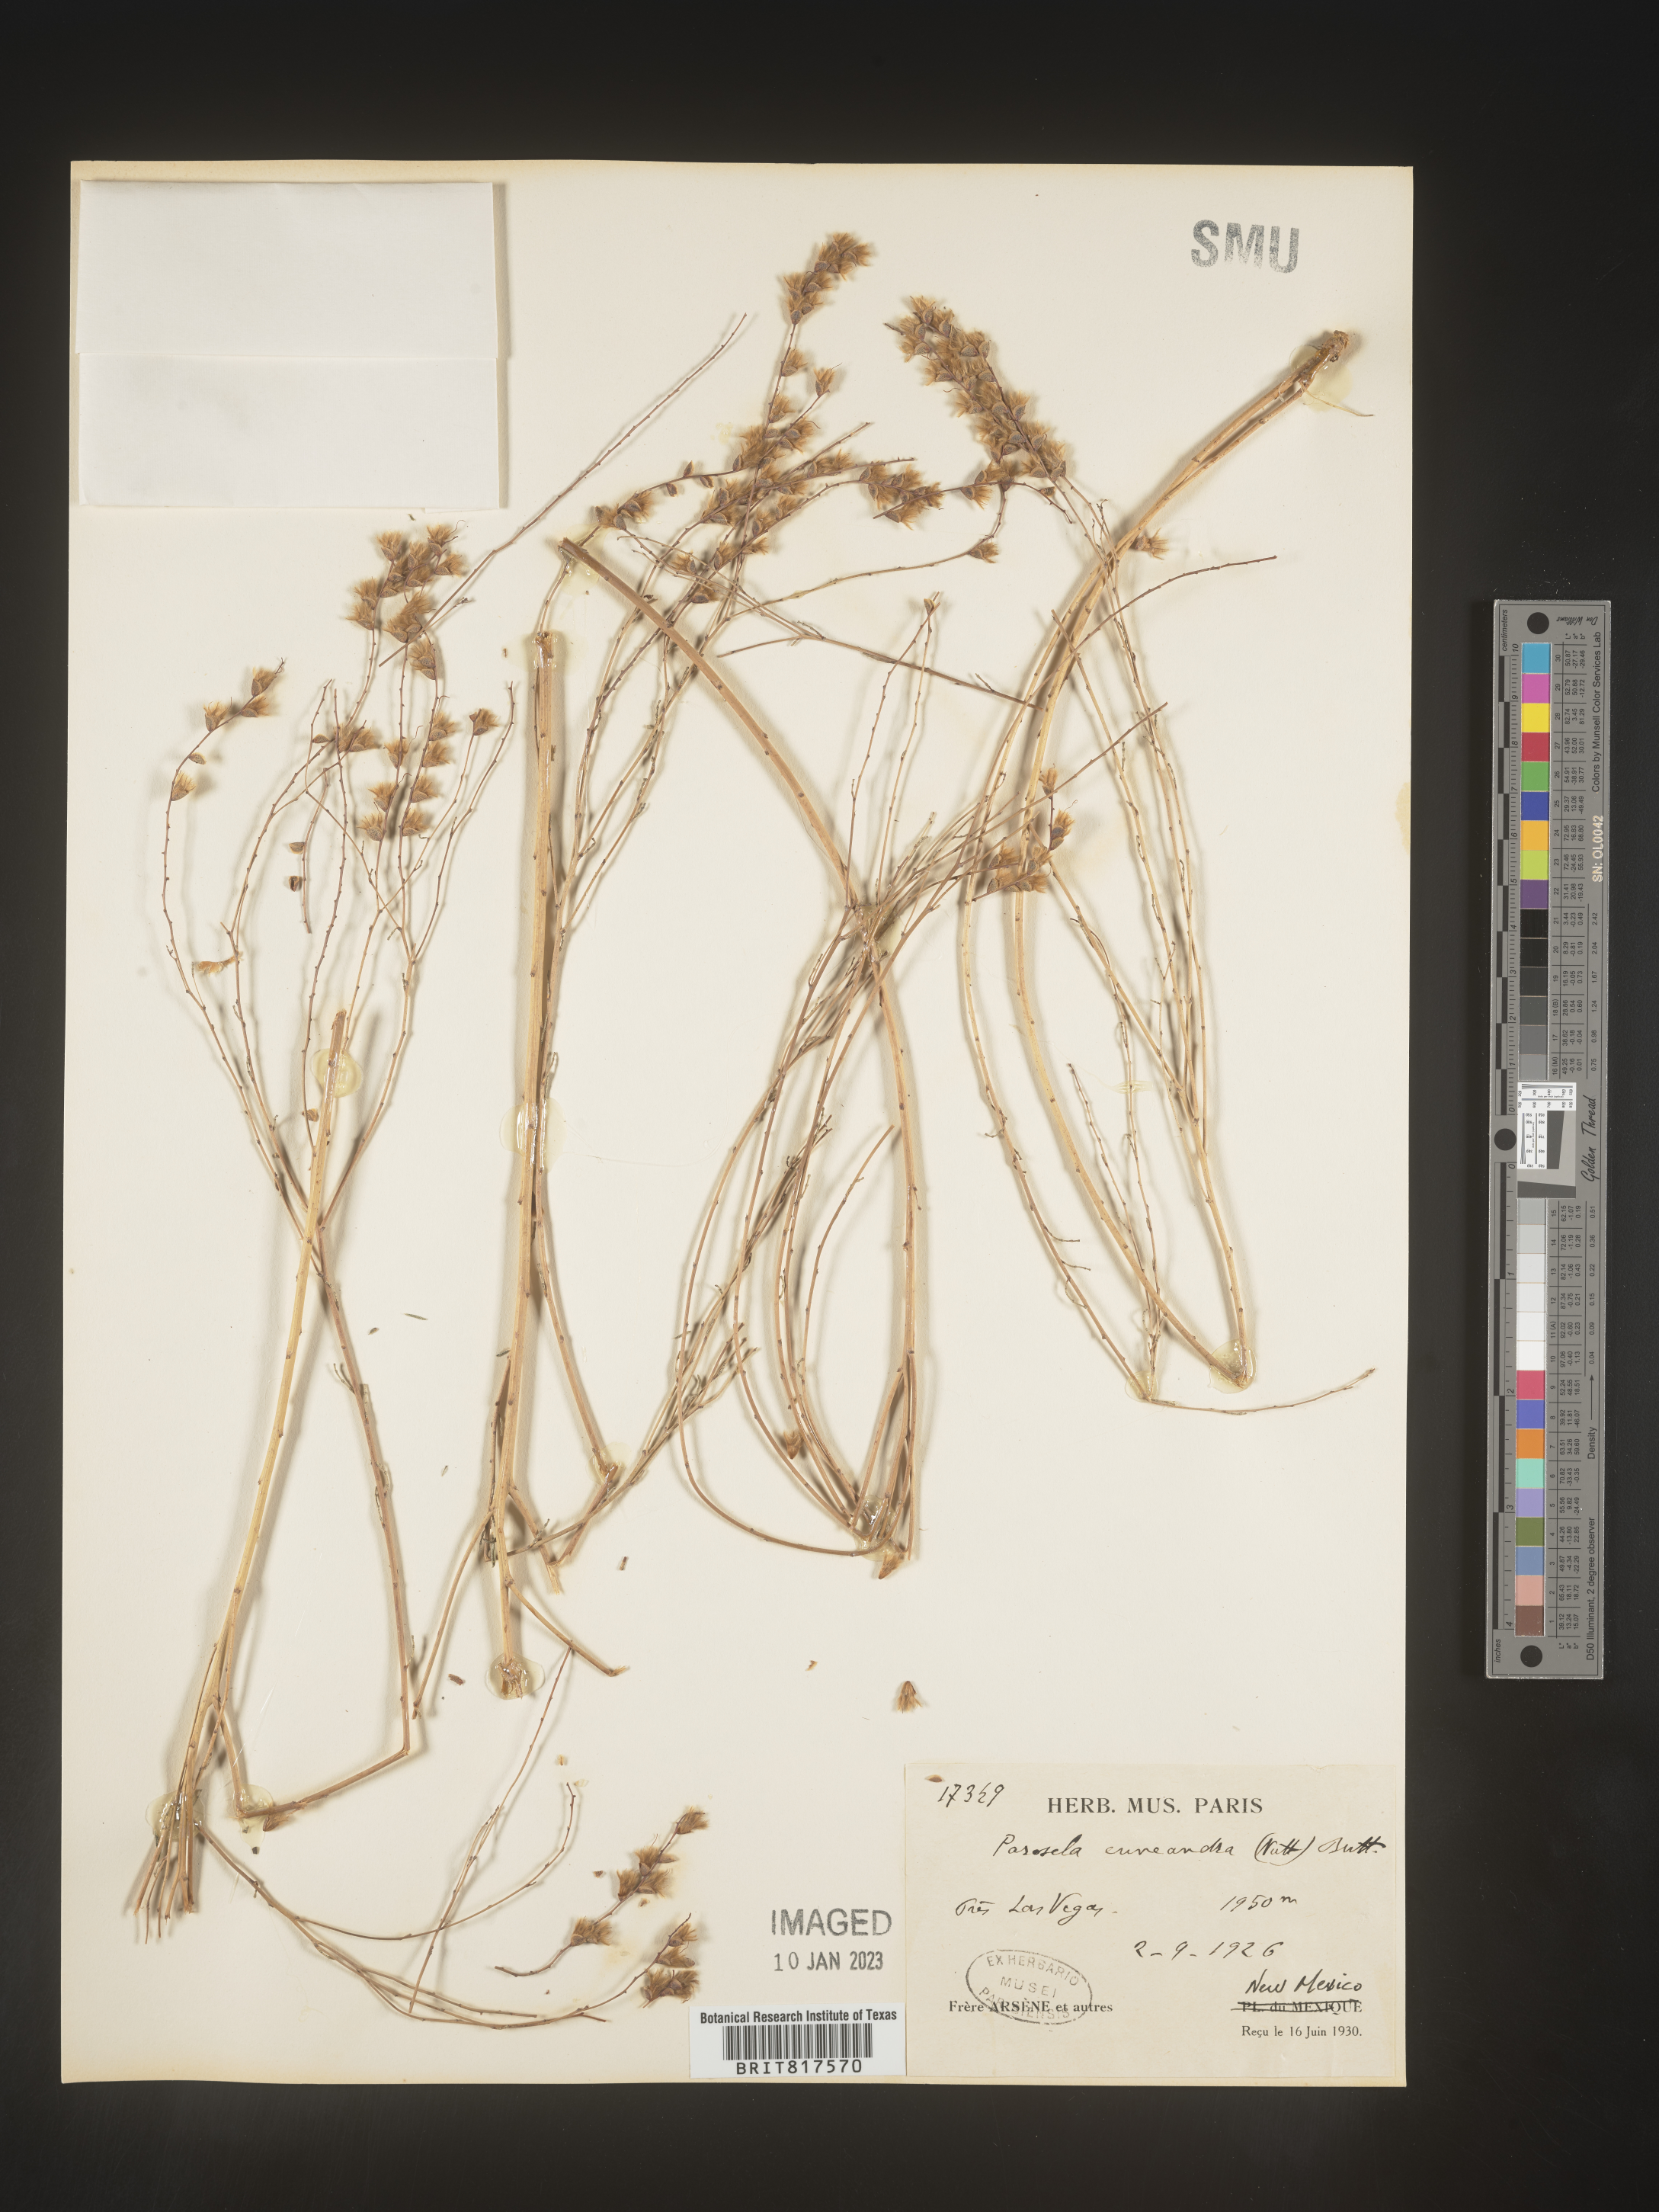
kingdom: Plantae
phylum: Tracheophyta
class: Magnoliopsida
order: Fabales
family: Fabaceae
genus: Dalea
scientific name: Dalea hegewischiana
